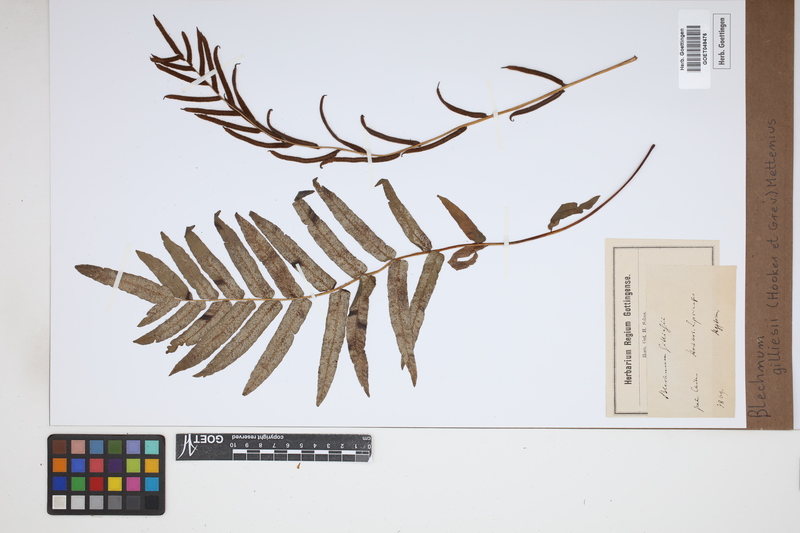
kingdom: Plantae
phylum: Tracheophyta
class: Polypodiopsida
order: Polypodiales
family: Blechnaceae
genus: Parablechnum
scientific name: Parablechnum cordatum
